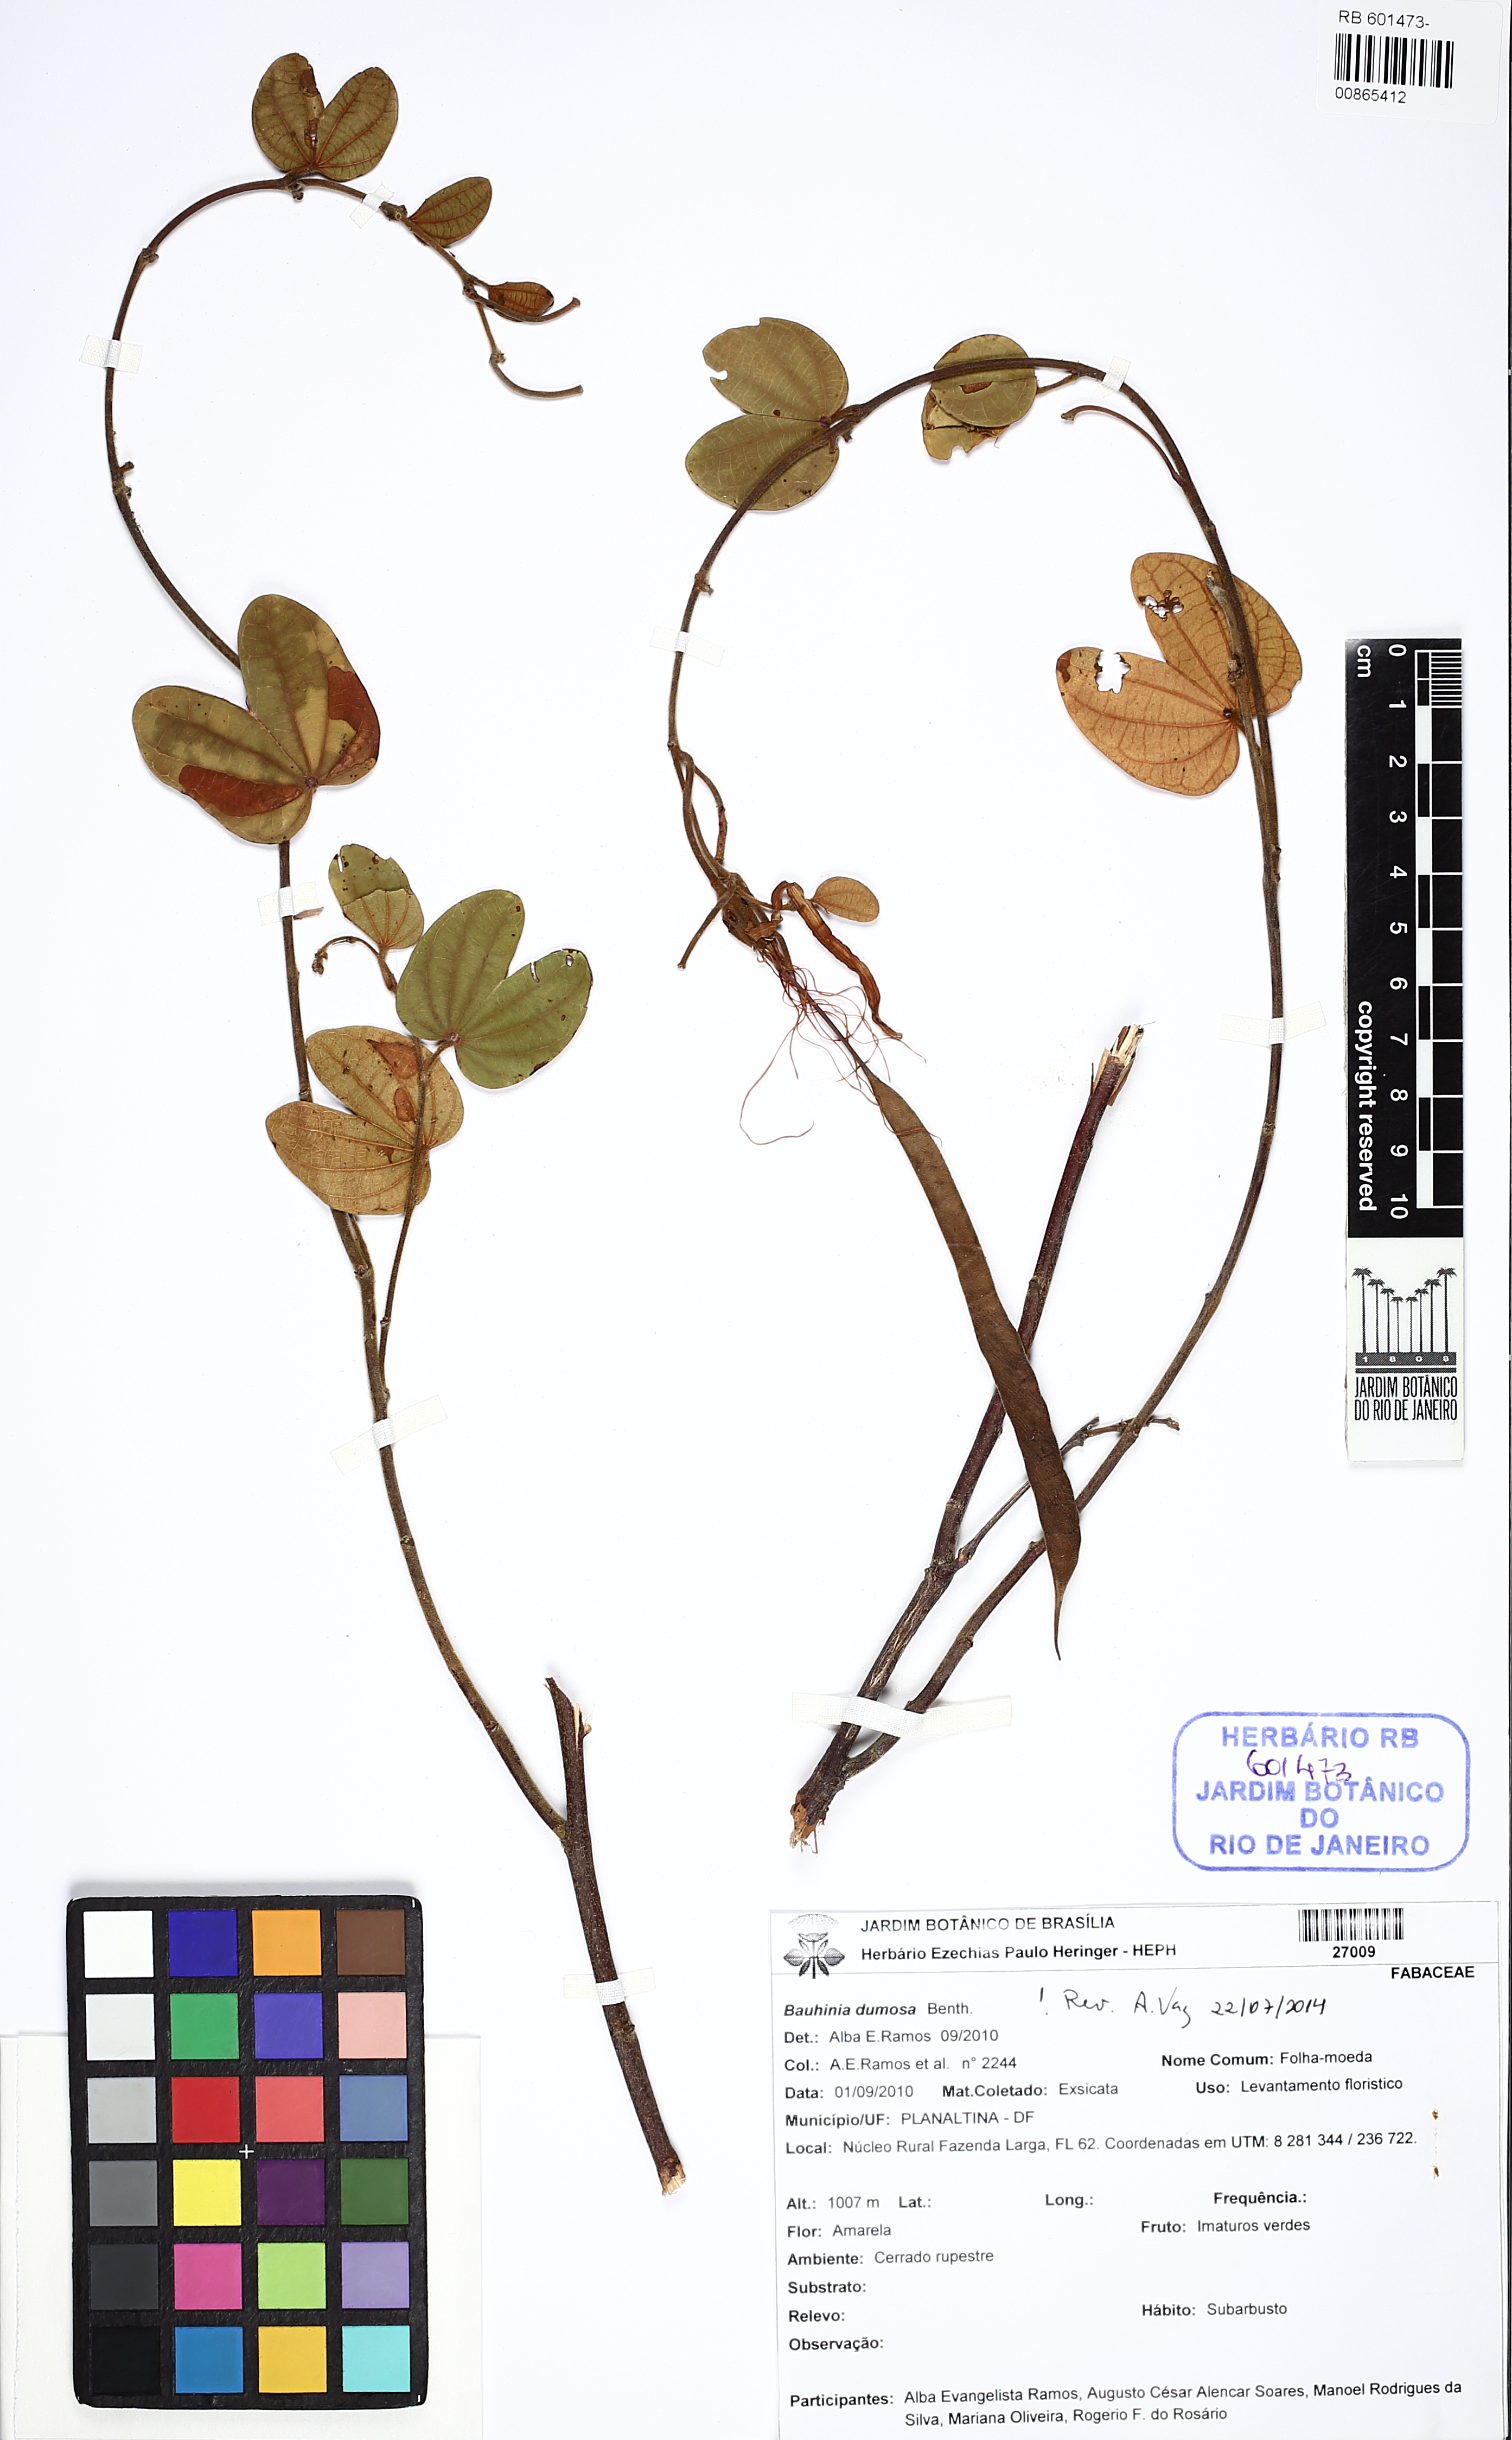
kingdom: Plantae
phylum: Tracheophyta
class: Magnoliopsida
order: Fabales
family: Fabaceae
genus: Bauhinia
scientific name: Bauhinia dumosa
